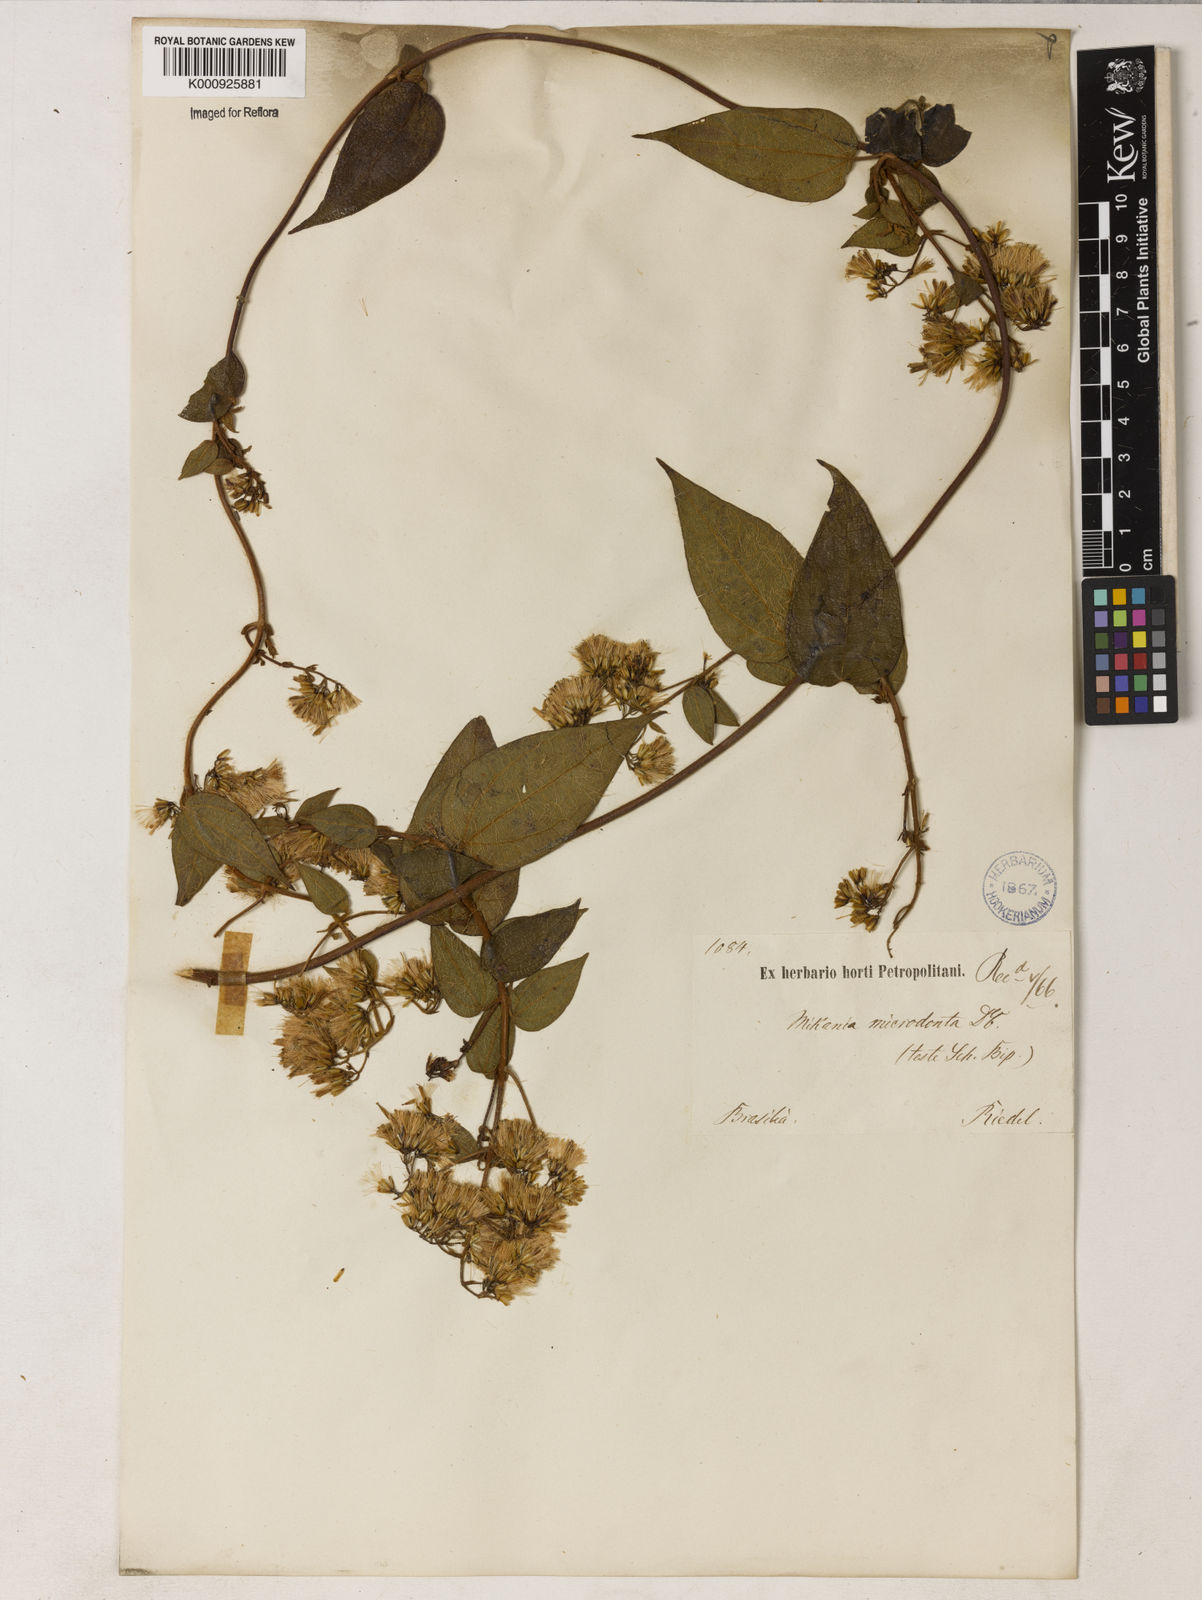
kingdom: Plantae
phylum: Tracheophyta
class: Magnoliopsida
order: Asterales
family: Asteraceae
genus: Mikania
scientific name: Mikania microdonta
